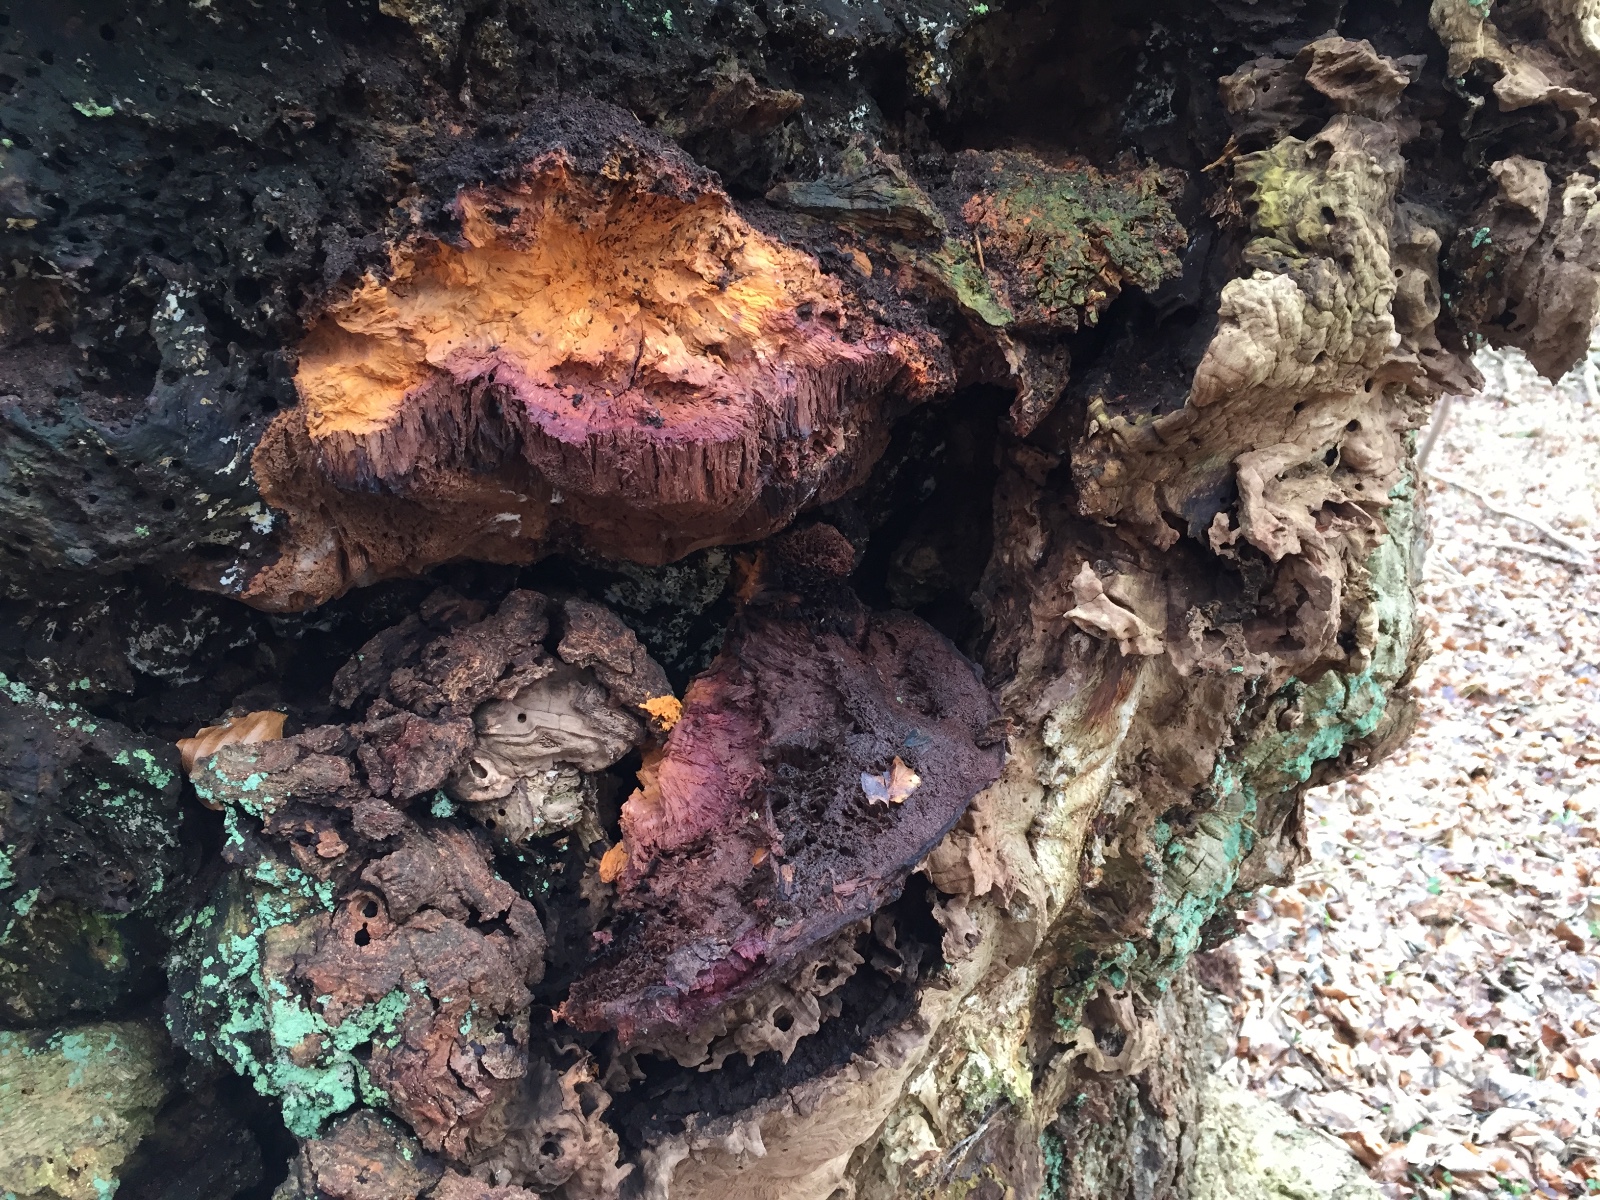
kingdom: Fungi
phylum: Basidiomycota
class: Agaricomycetes
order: Hymenochaetales
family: Hymenochaetaceae
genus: Pseudoinonotus
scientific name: Pseudoinonotus dryadeus
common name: ege-spejlporesvamp
